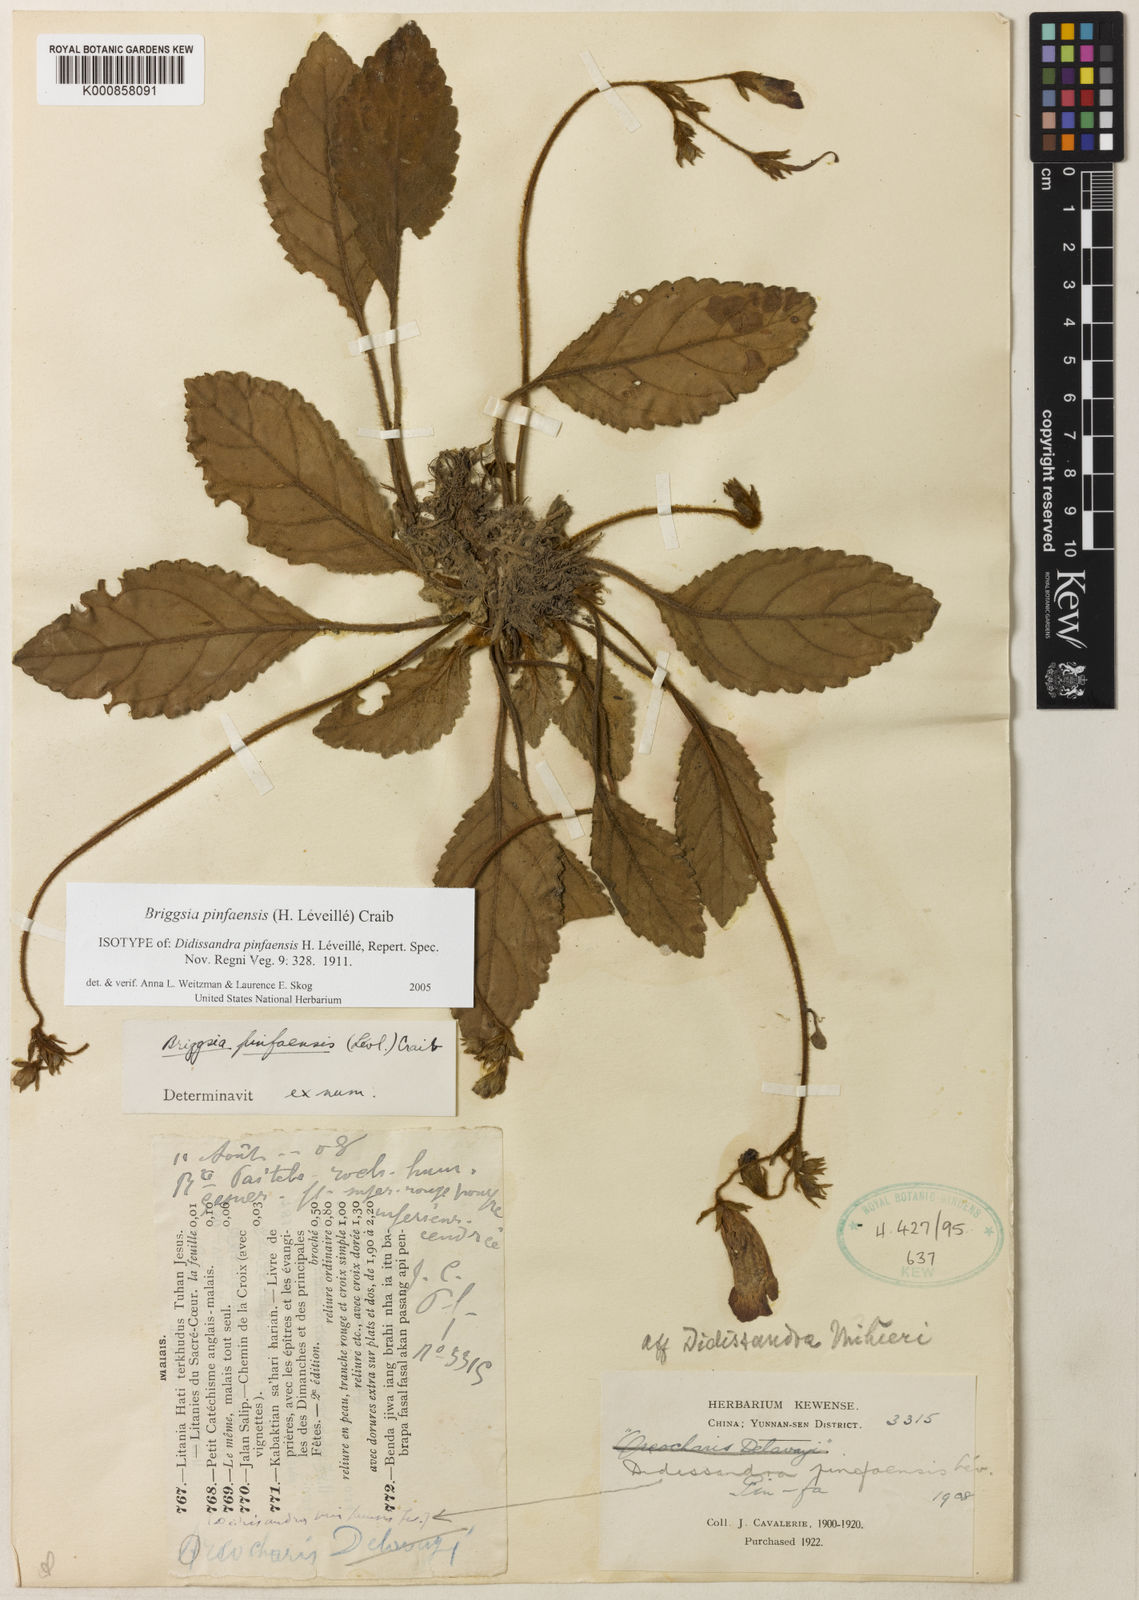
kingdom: Plantae
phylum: Tracheophyta
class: Magnoliopsida
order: Lamiales
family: Gesneriaceae
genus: Oreocharis
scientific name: Oreocharis
